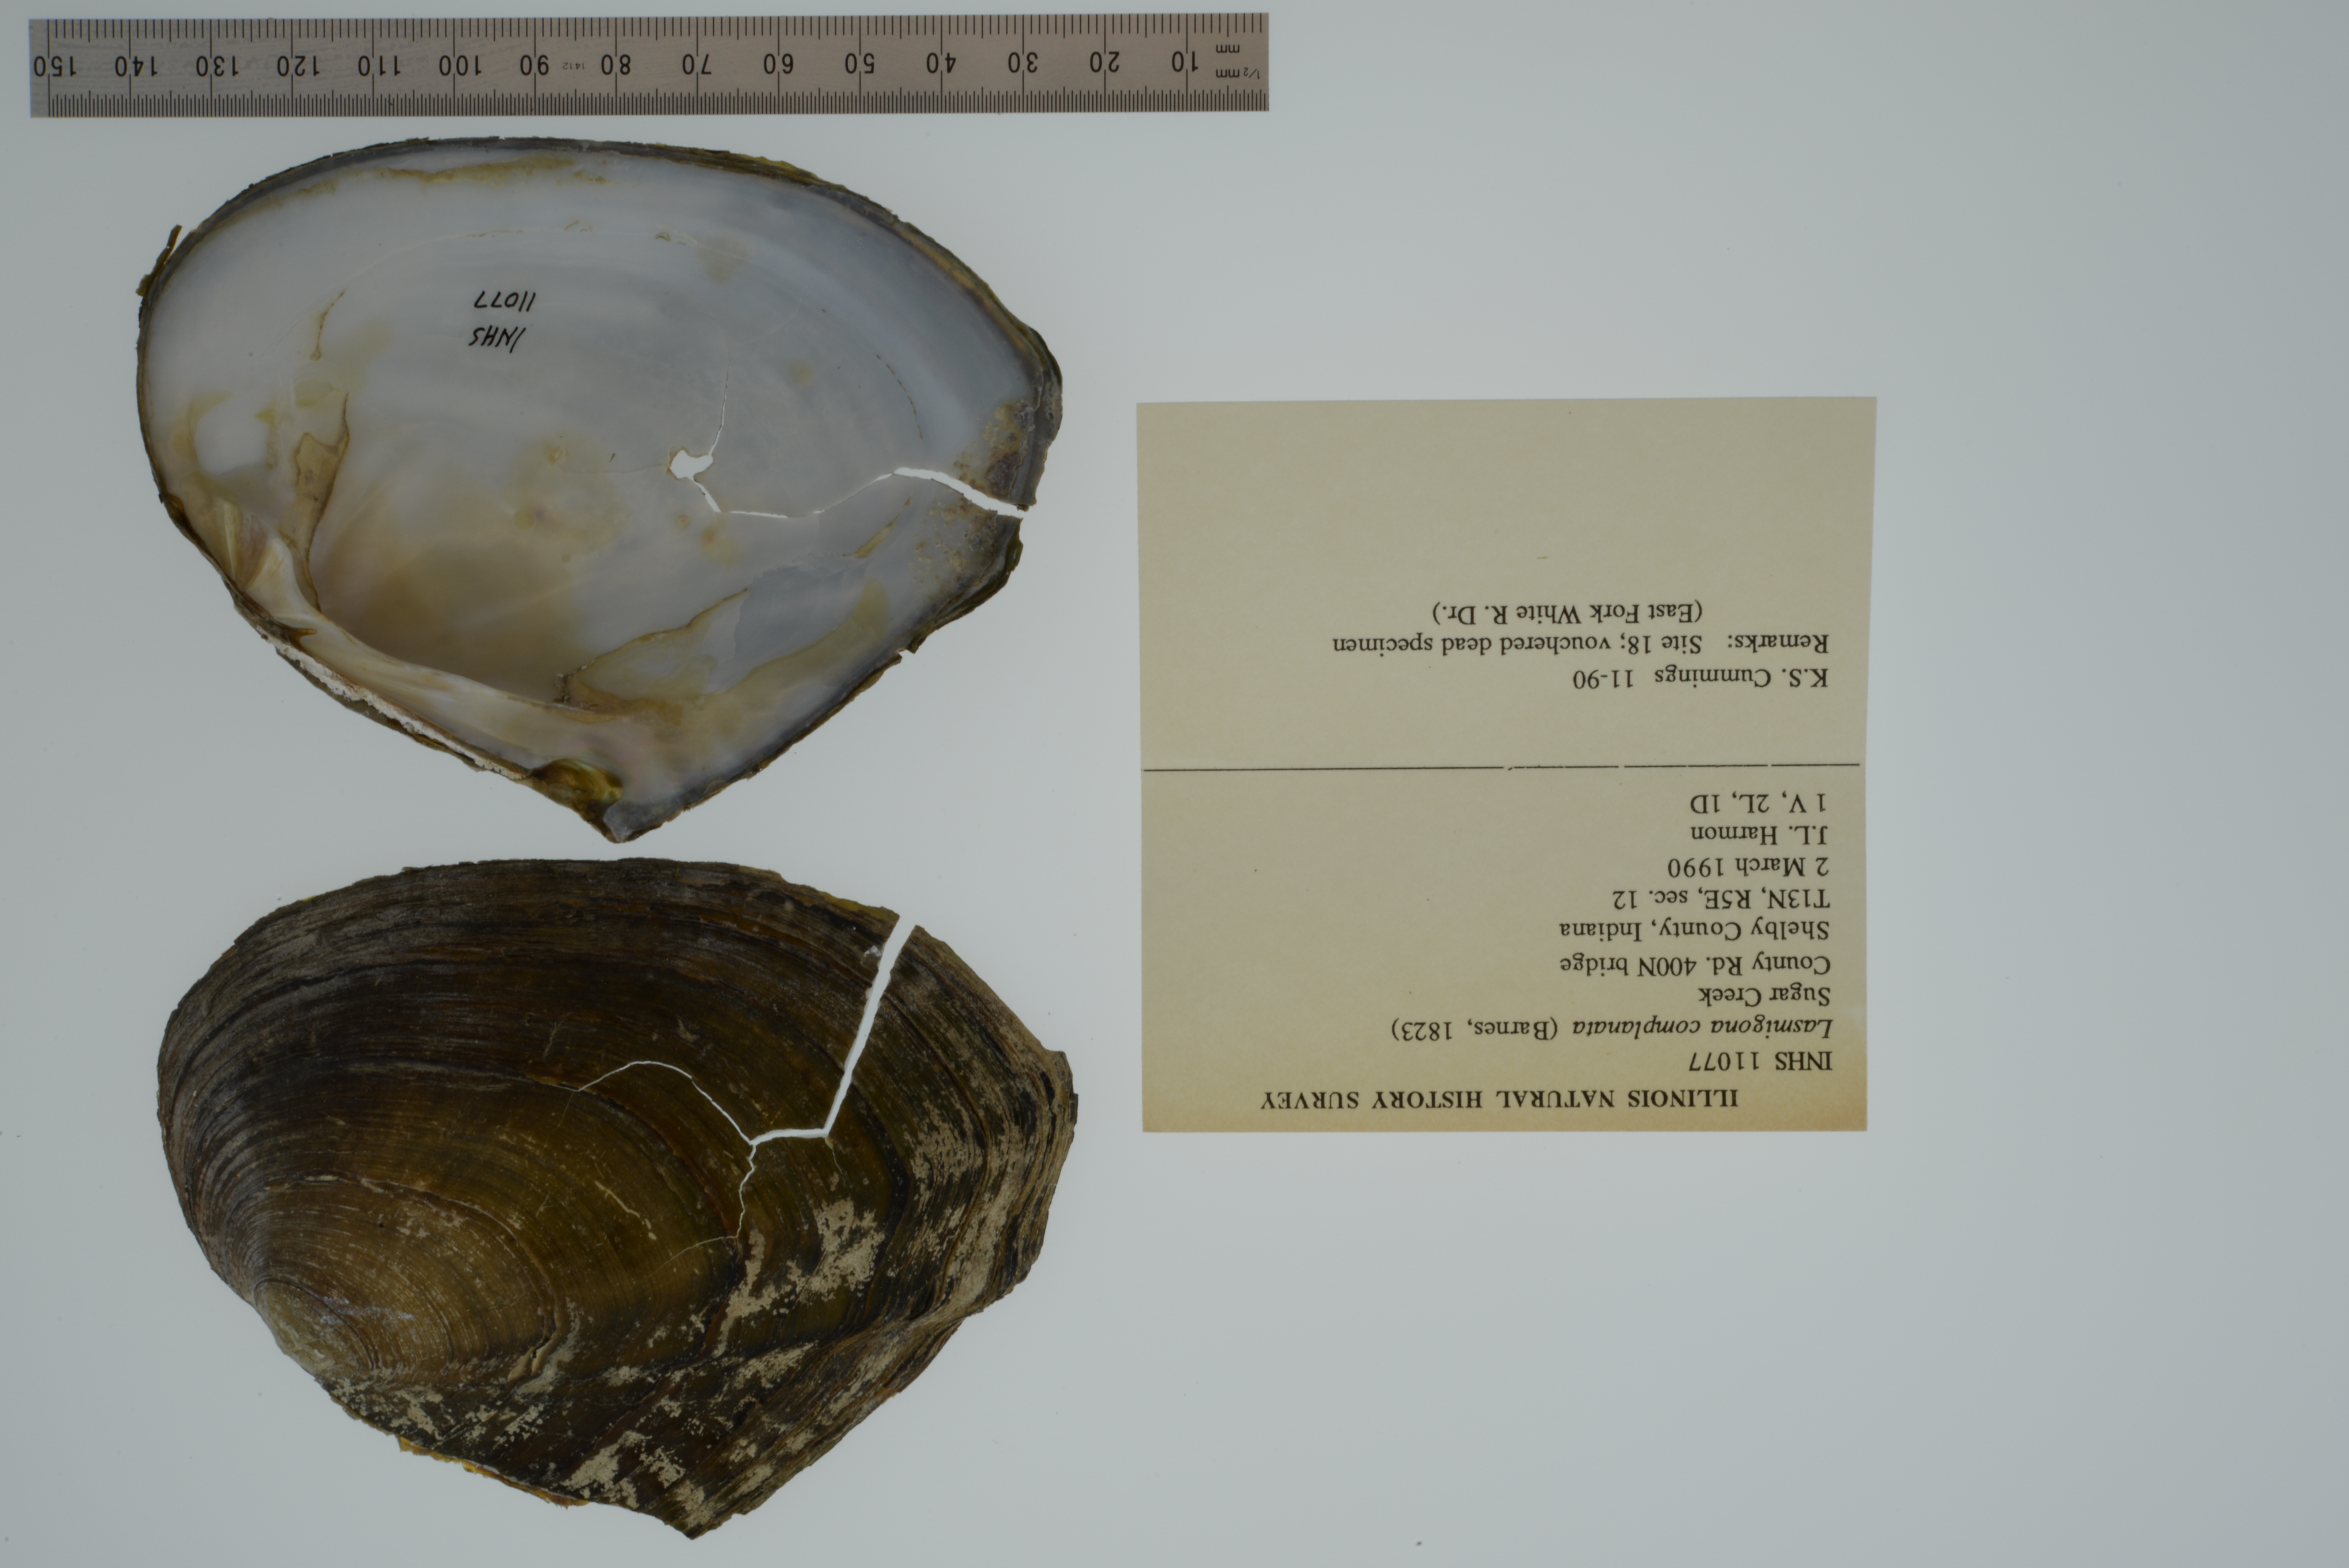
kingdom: Animalia
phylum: Mollusca
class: Bivalvia
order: Unionida
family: Unionidae
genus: Lasmigona
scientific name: Lasmigona complanata
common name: White heelsplitter
